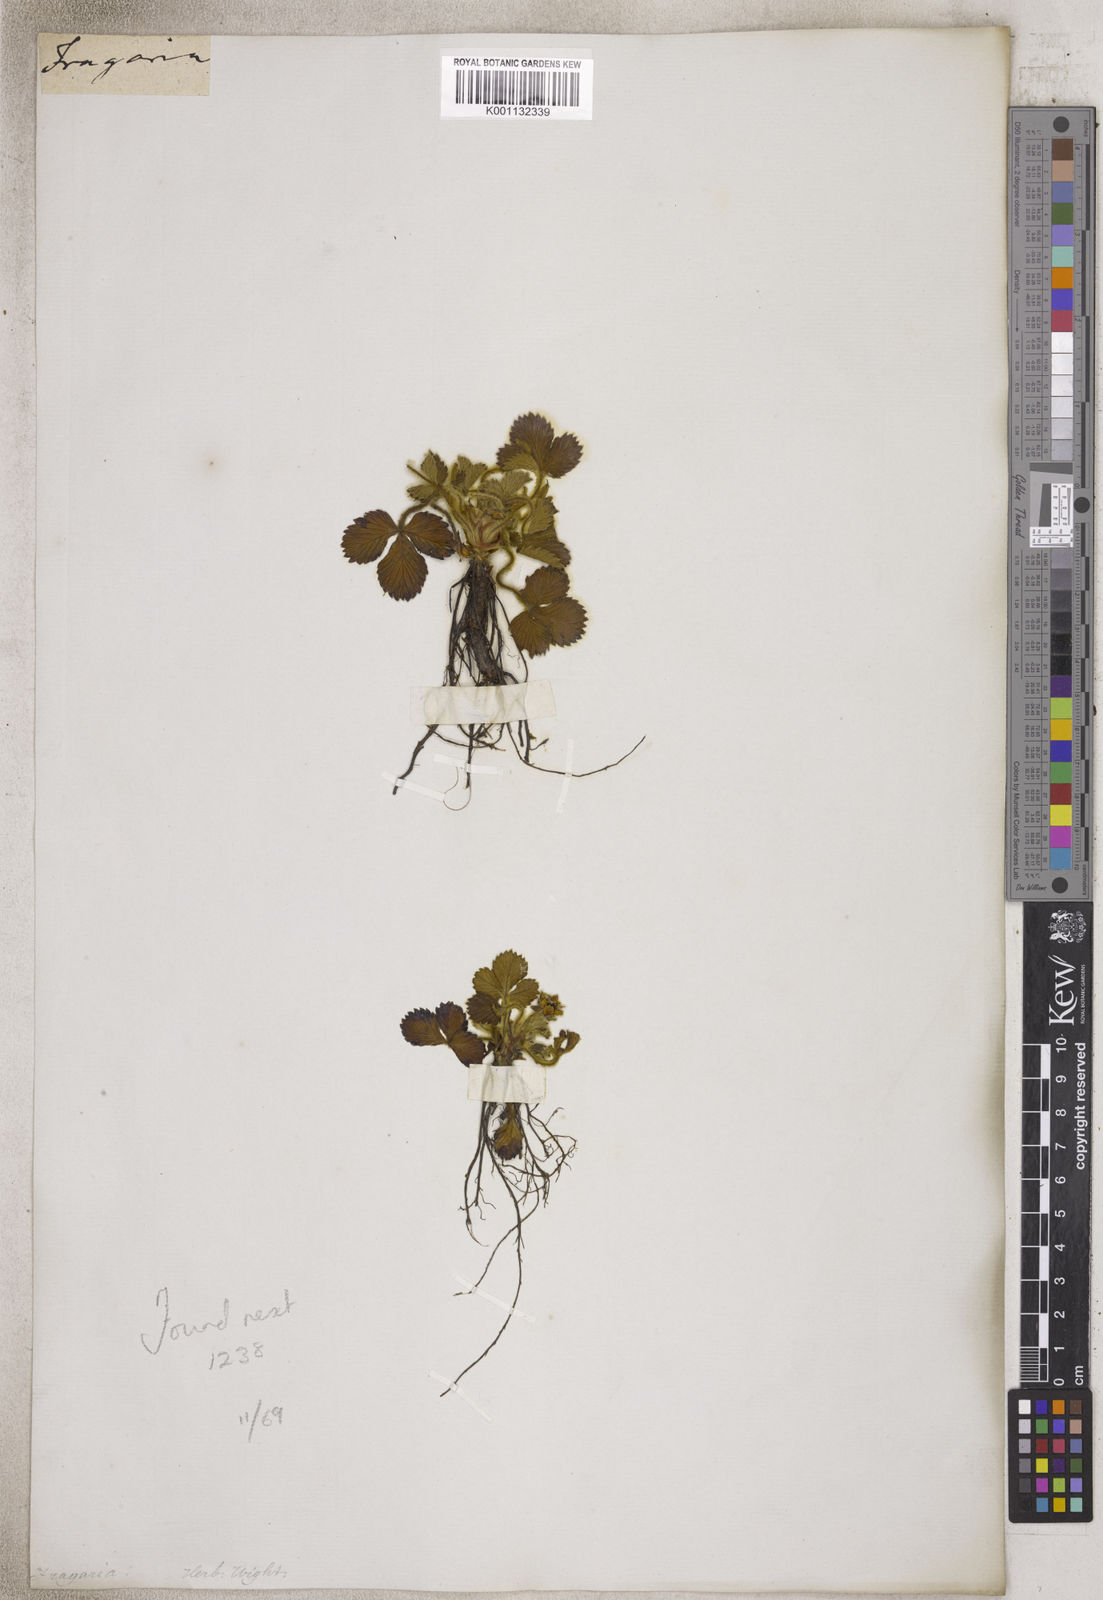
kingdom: Plantae
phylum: Tracheophyta
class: Magnoliopsida
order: Rosales
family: Rosaceae
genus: Fragaria
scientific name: Fragaria
